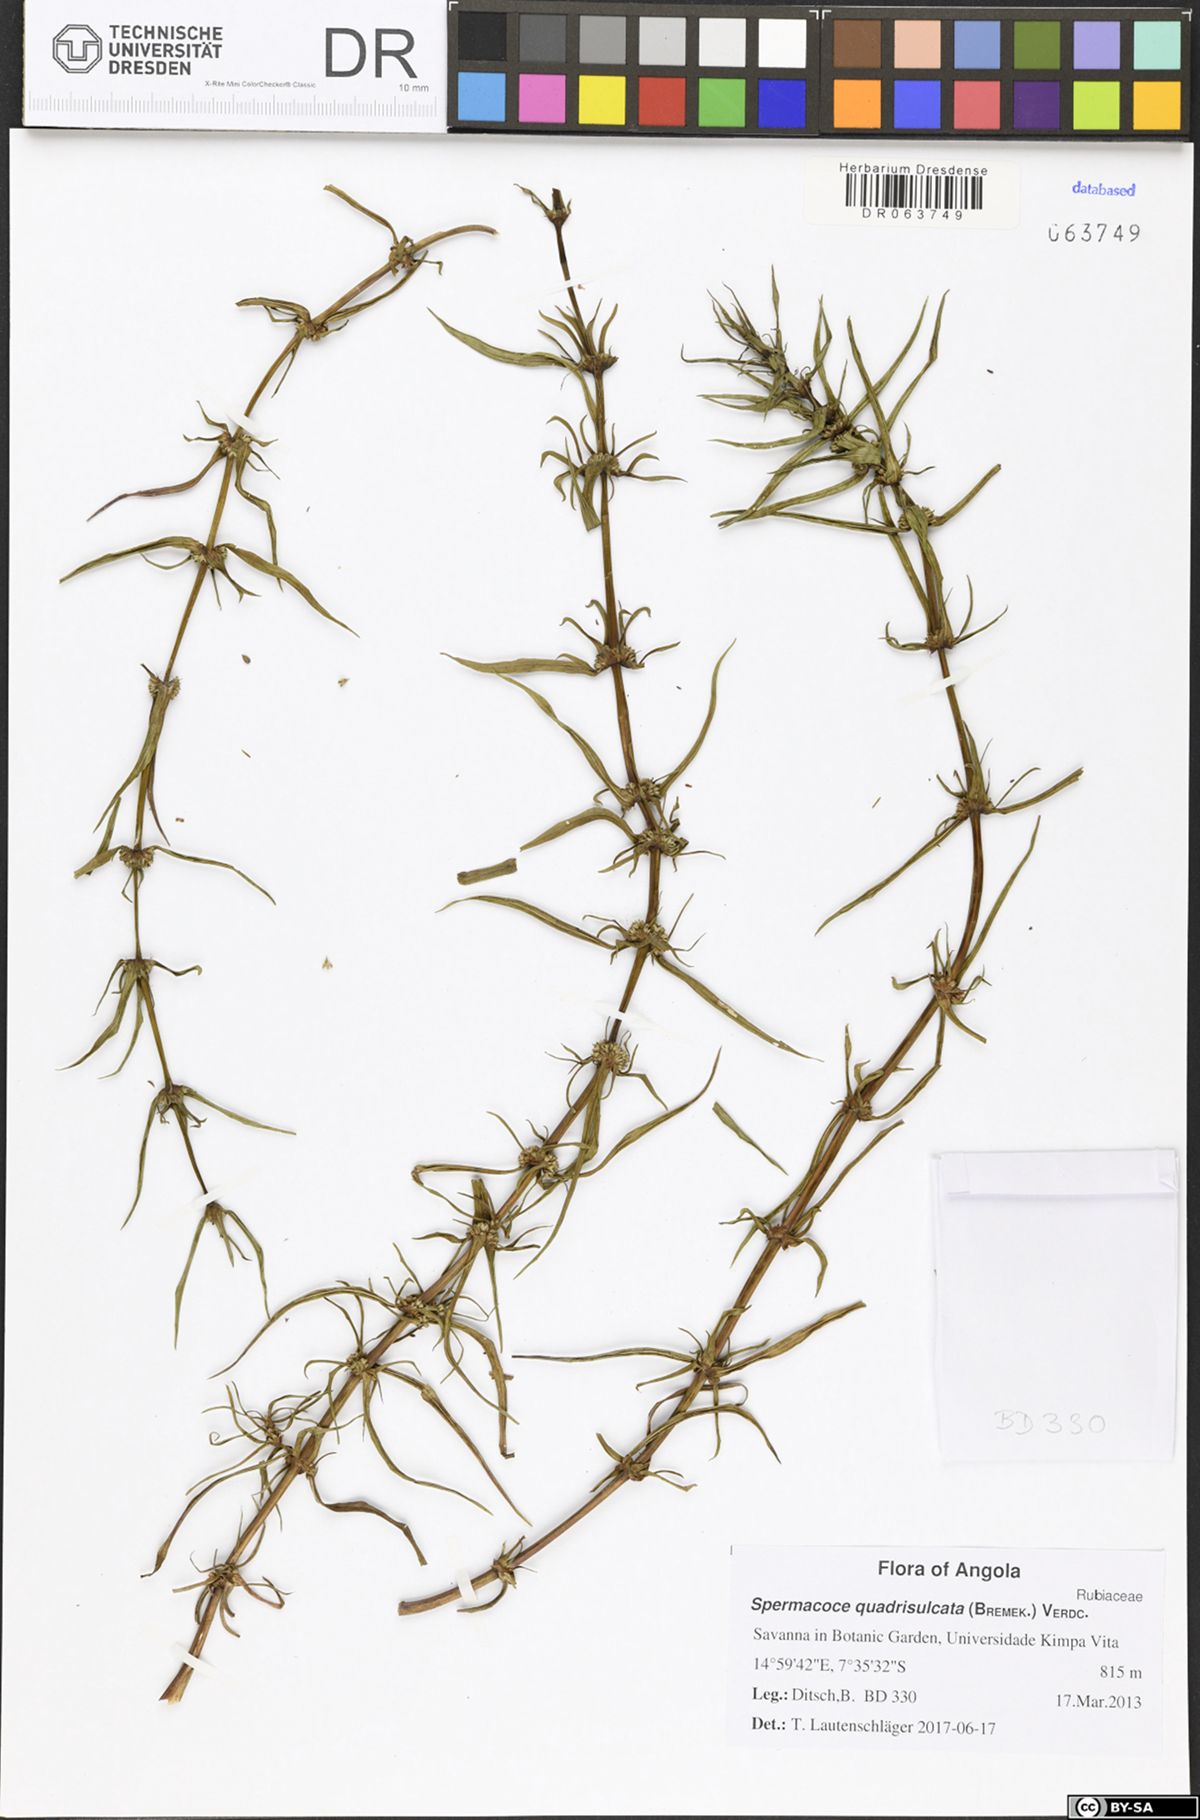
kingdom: Plantae
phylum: Tracheophyta
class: Magnoliopsida
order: Gentianales
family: Rubiaceae
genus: Spermacoce
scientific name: Spermacoce quadrisulcata
